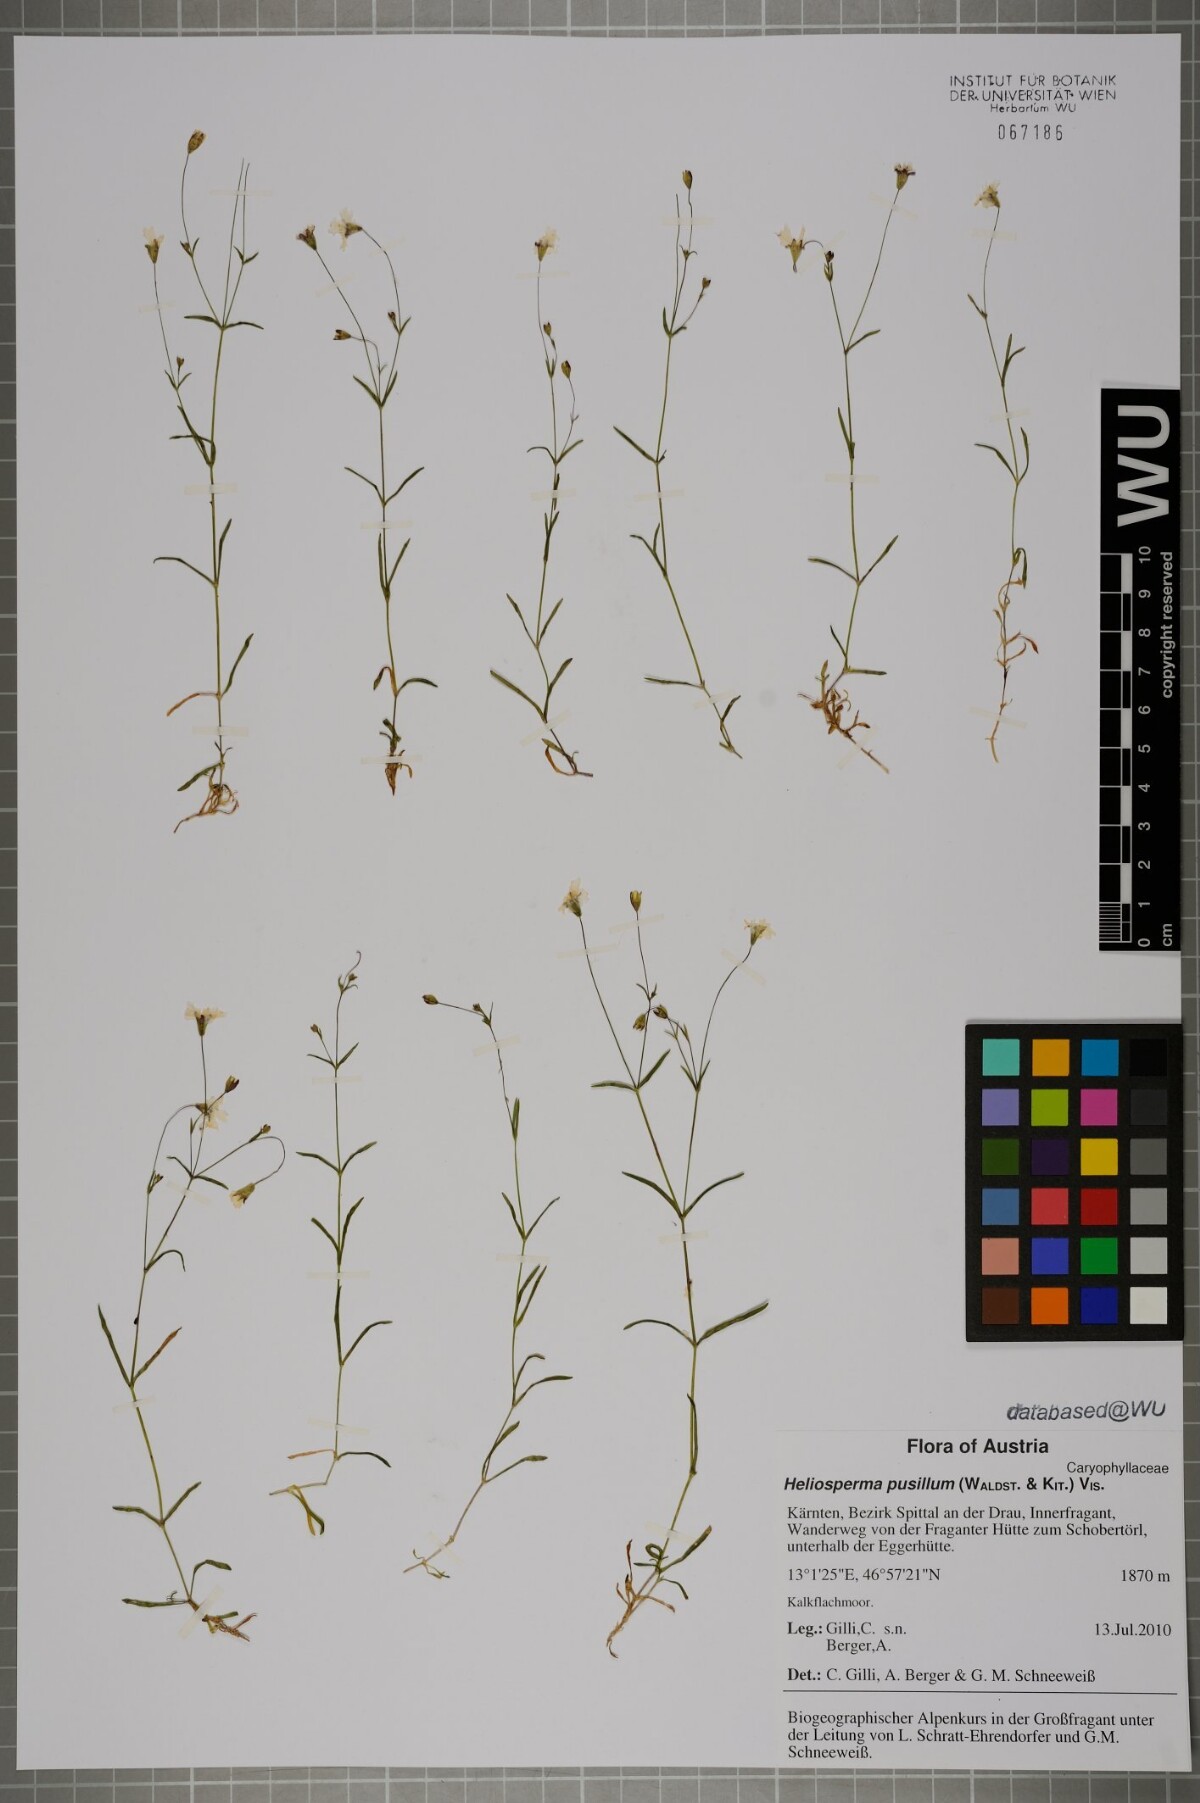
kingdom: Plantae
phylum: Tracheophyta
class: Magnoliopsida
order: Caryophyllales
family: Caryophyllaceae
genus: Heliosperma
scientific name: Heliosperma pusillum
